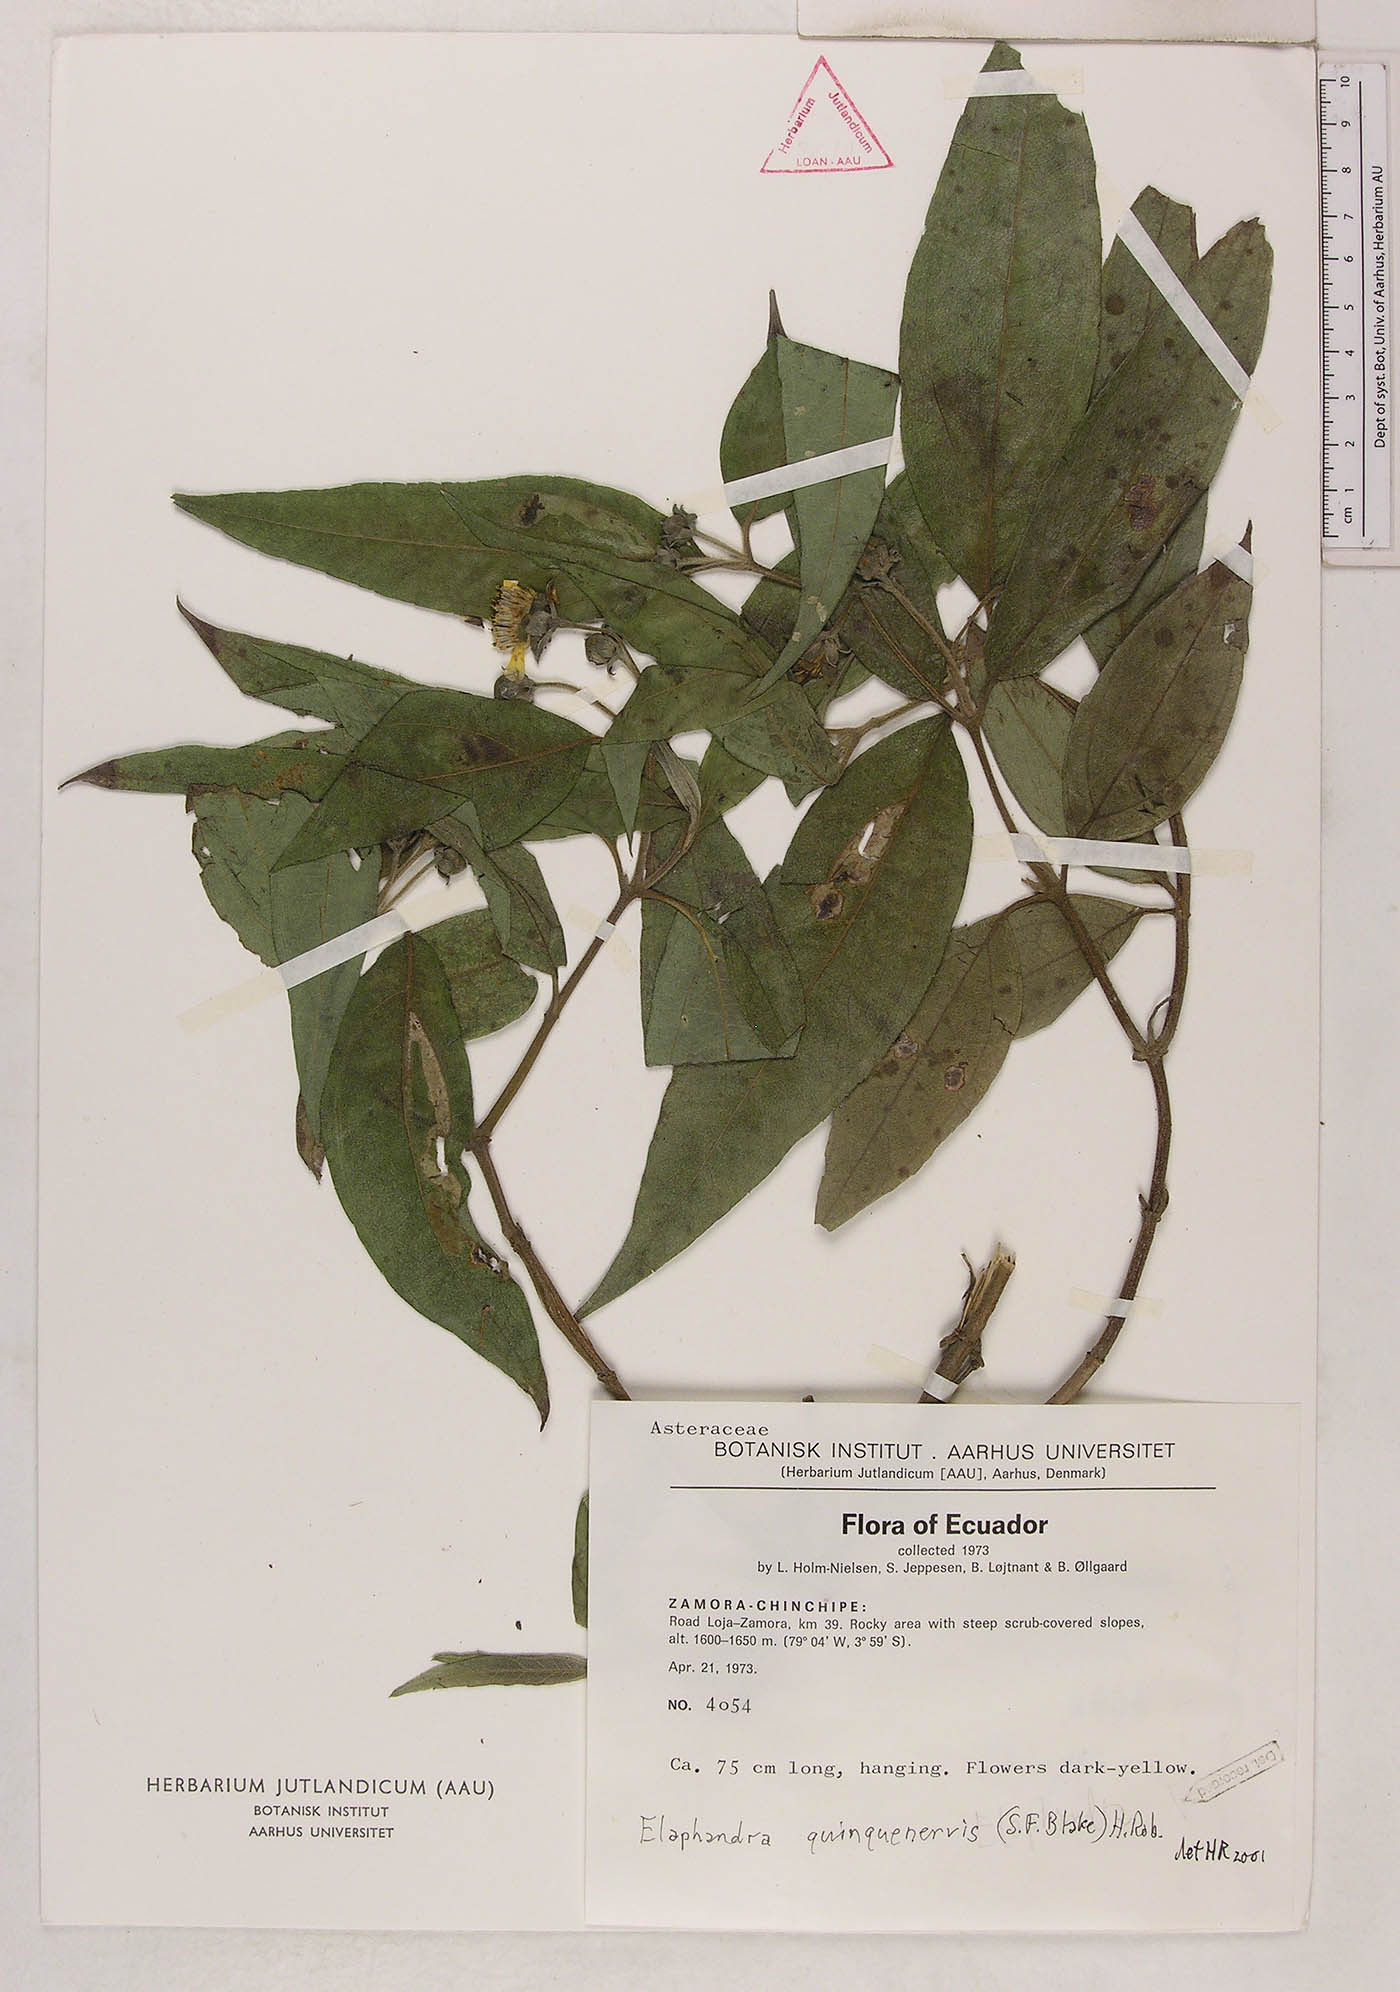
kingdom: Plantae
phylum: Tracheophyta
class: Magnoliopsida
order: Asterales
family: Asteraceae
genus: Elaphandra
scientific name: Elaphandra quinquenervis
